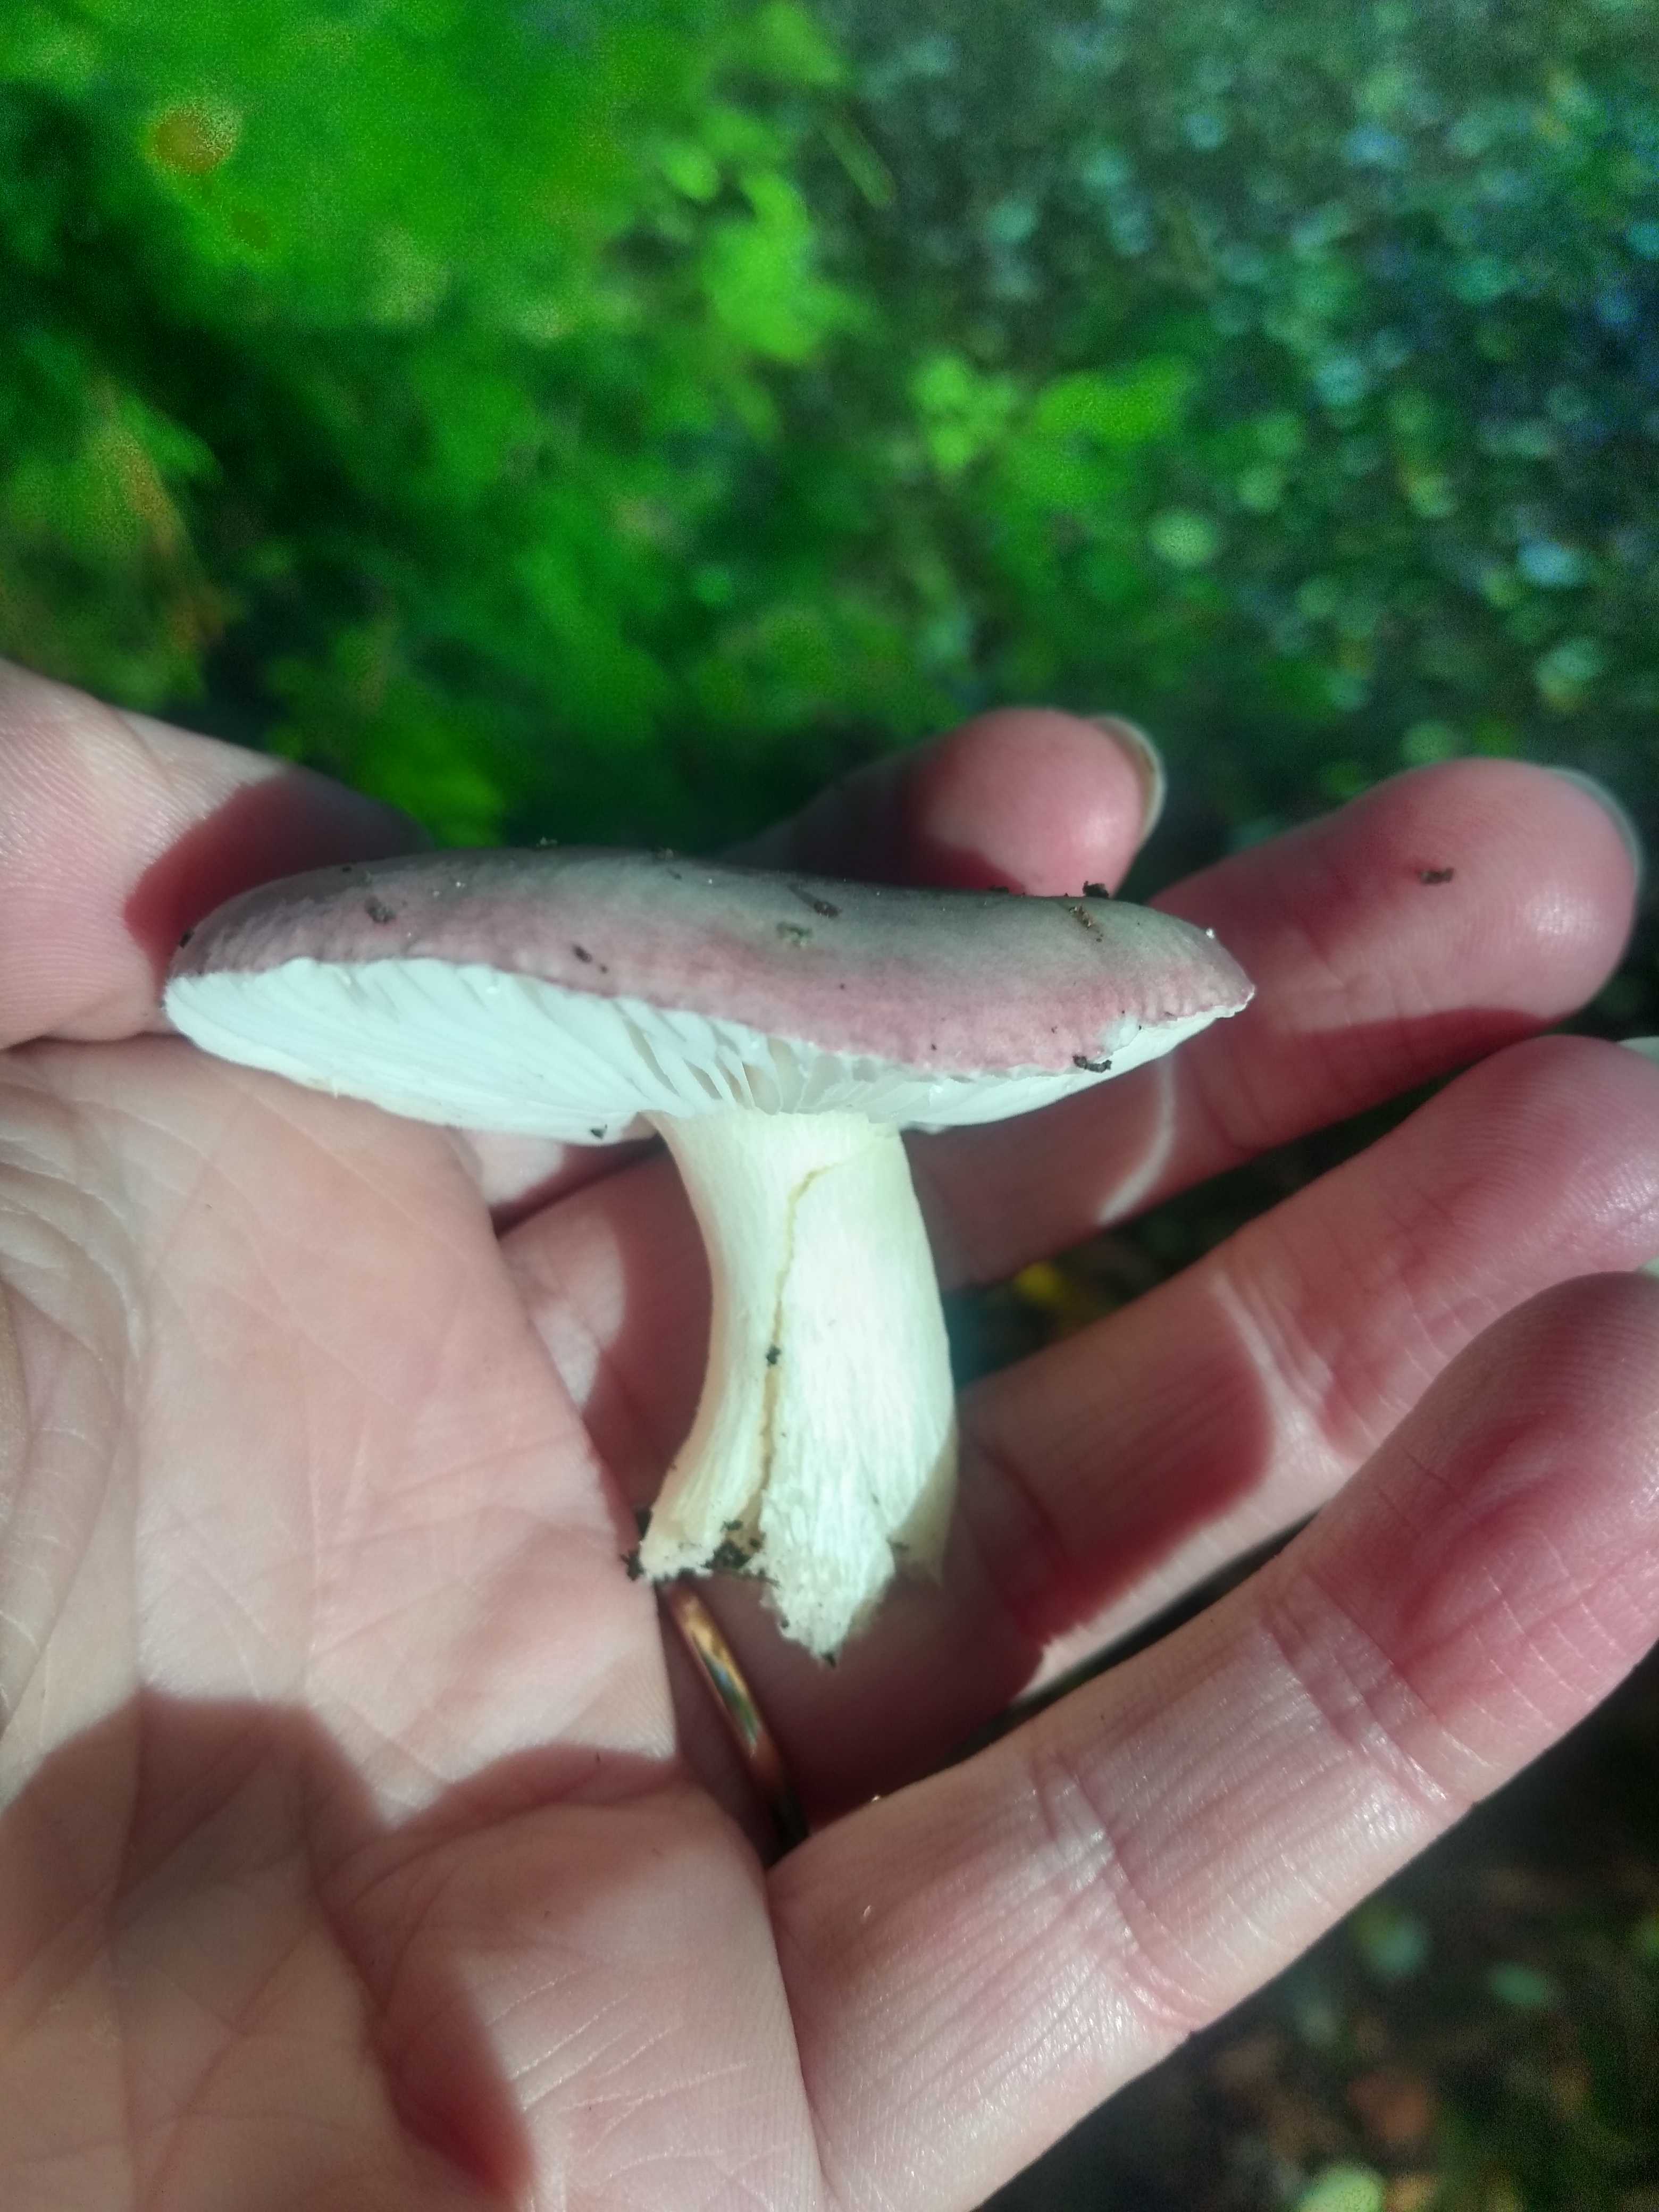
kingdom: Fungi
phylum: Basidiomycota
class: Agaricomycetes
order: Russulales
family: Russulaceae
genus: Russula
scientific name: Russula fragilis
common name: savbladet skørhat
